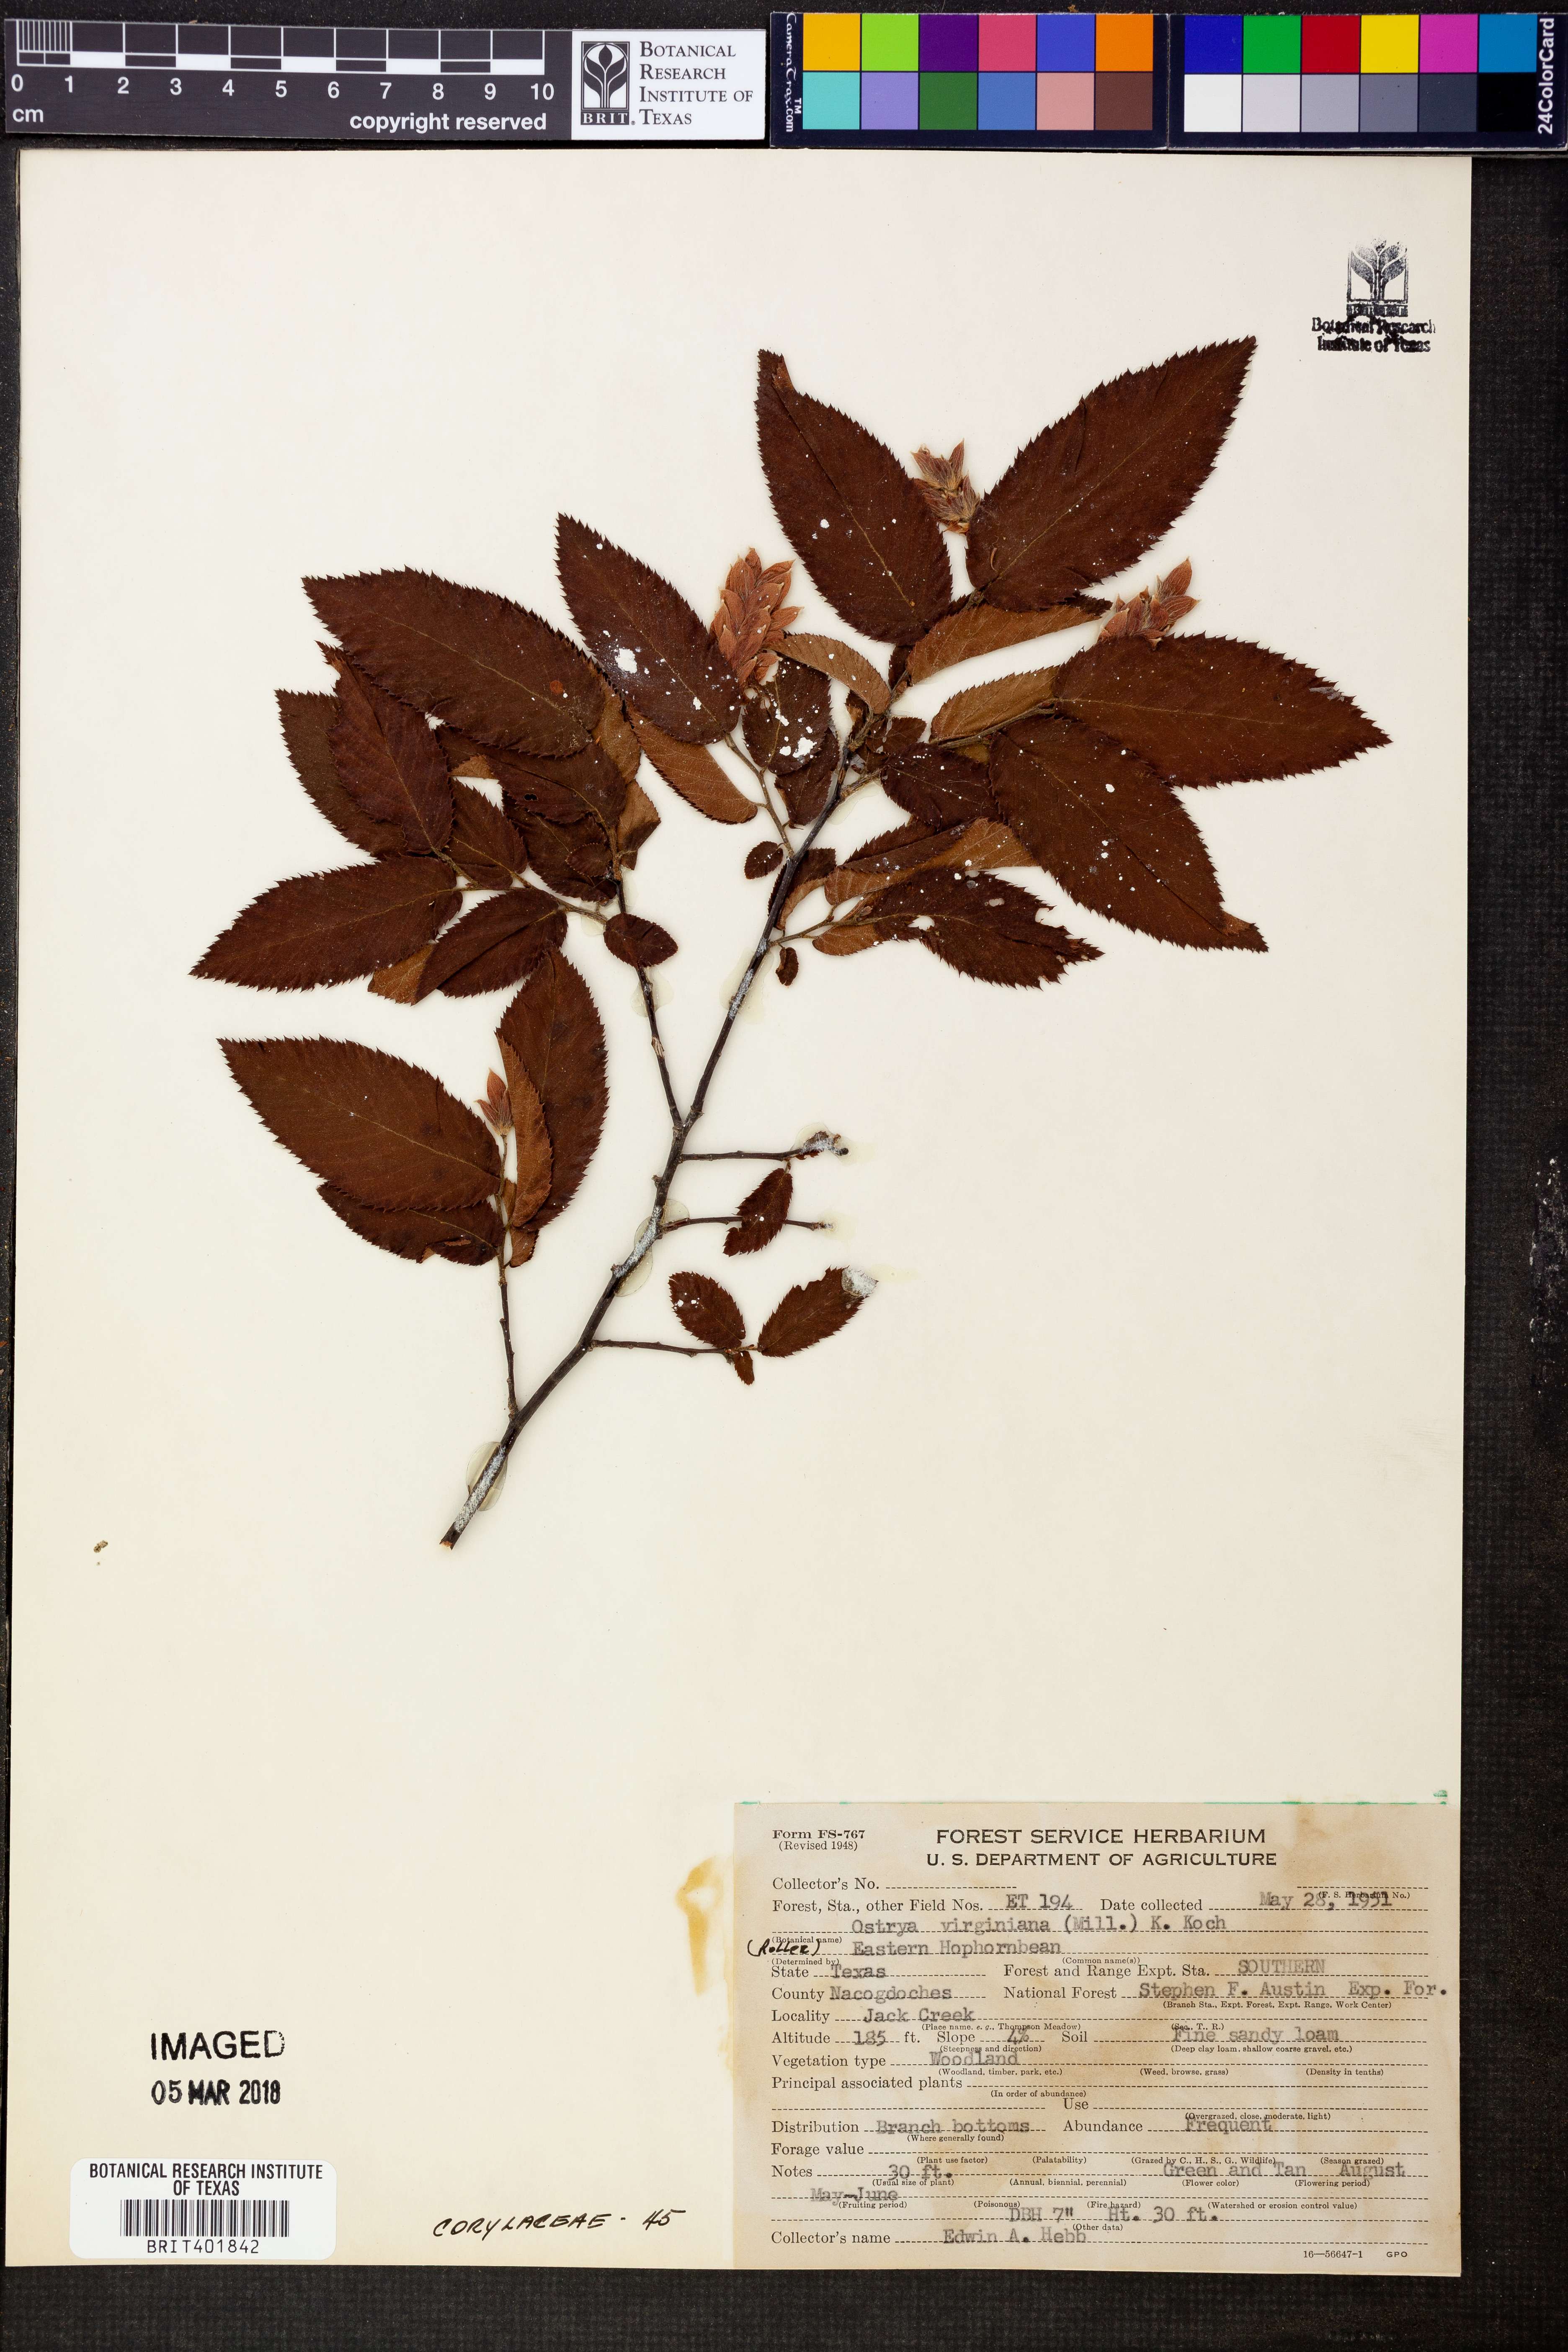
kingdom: Plantae
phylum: Tracheophyta
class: Magnoliopsida
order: Fagales
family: Betulaceae
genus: Ostrya
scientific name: Ostrya virginiana
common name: Ironwood
